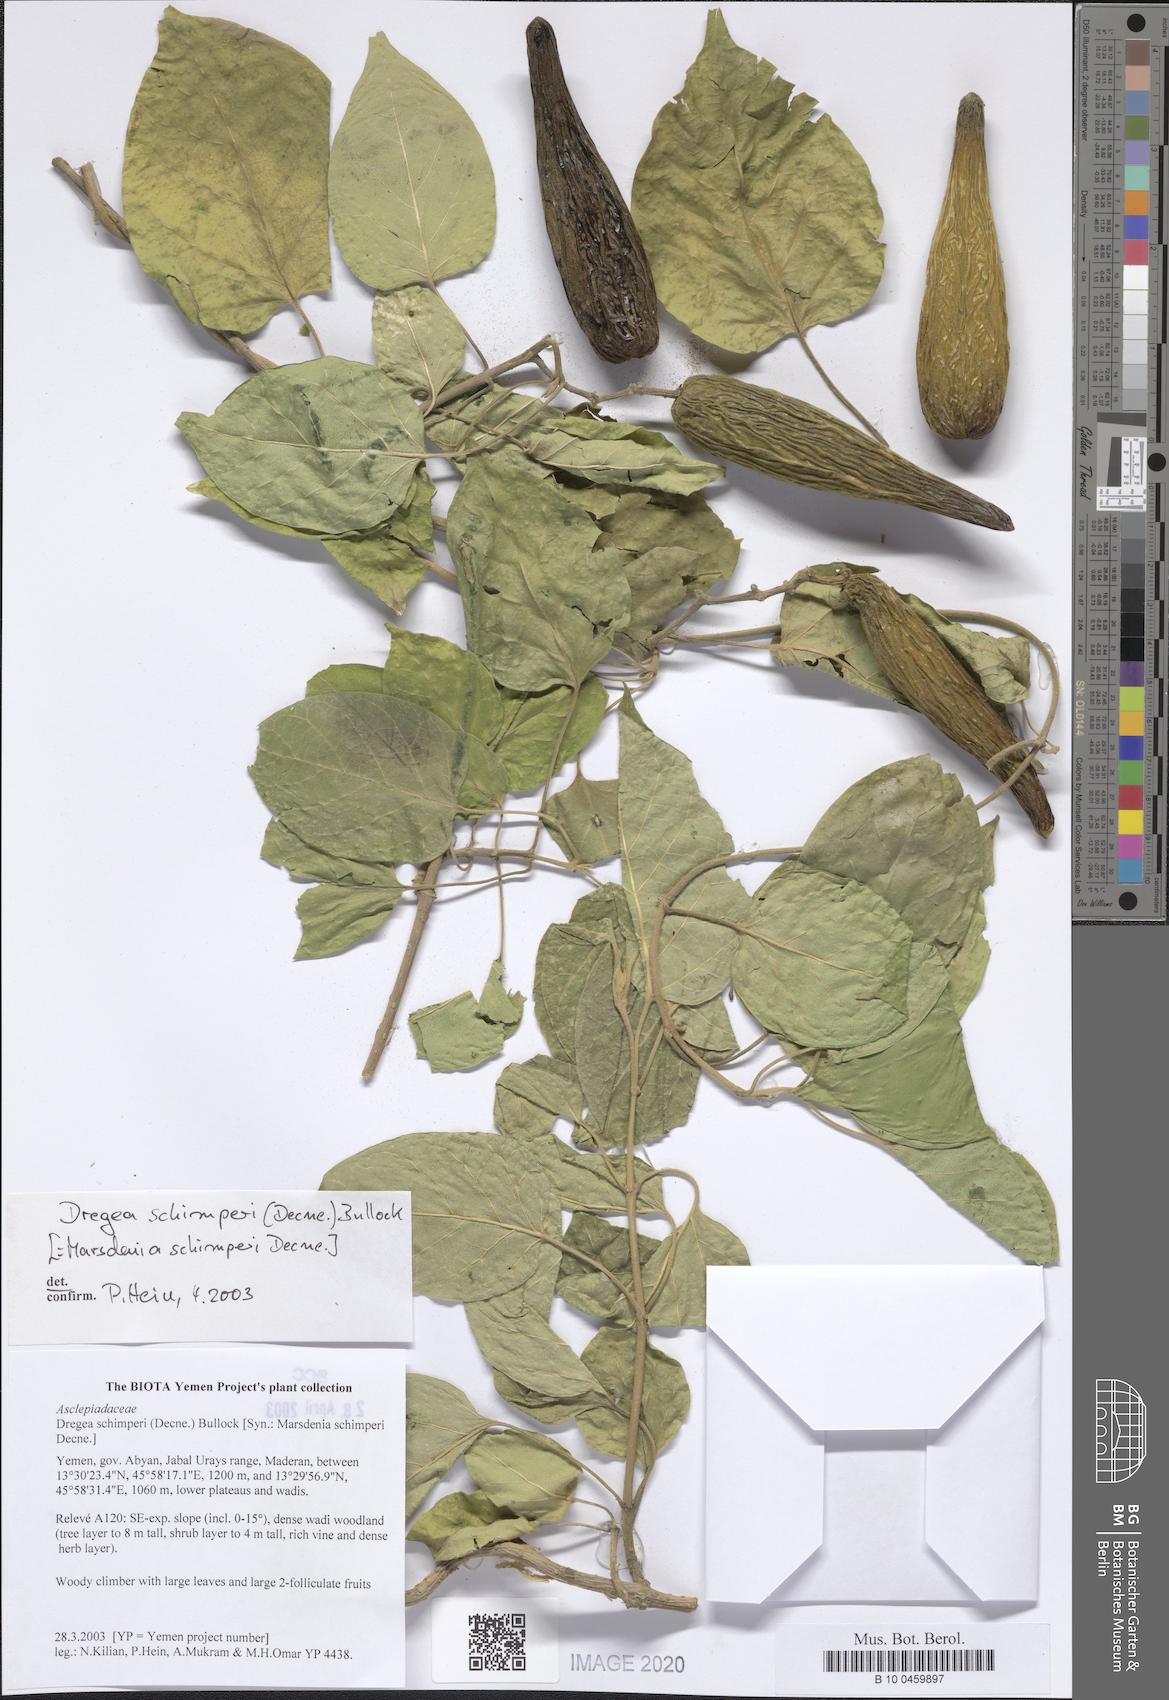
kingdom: Plantae
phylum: Tracheophyta
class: Magnoliopsida
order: Gentianales
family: Apocynaceae
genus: Stephanotis
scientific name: Stephanotis schimperi
